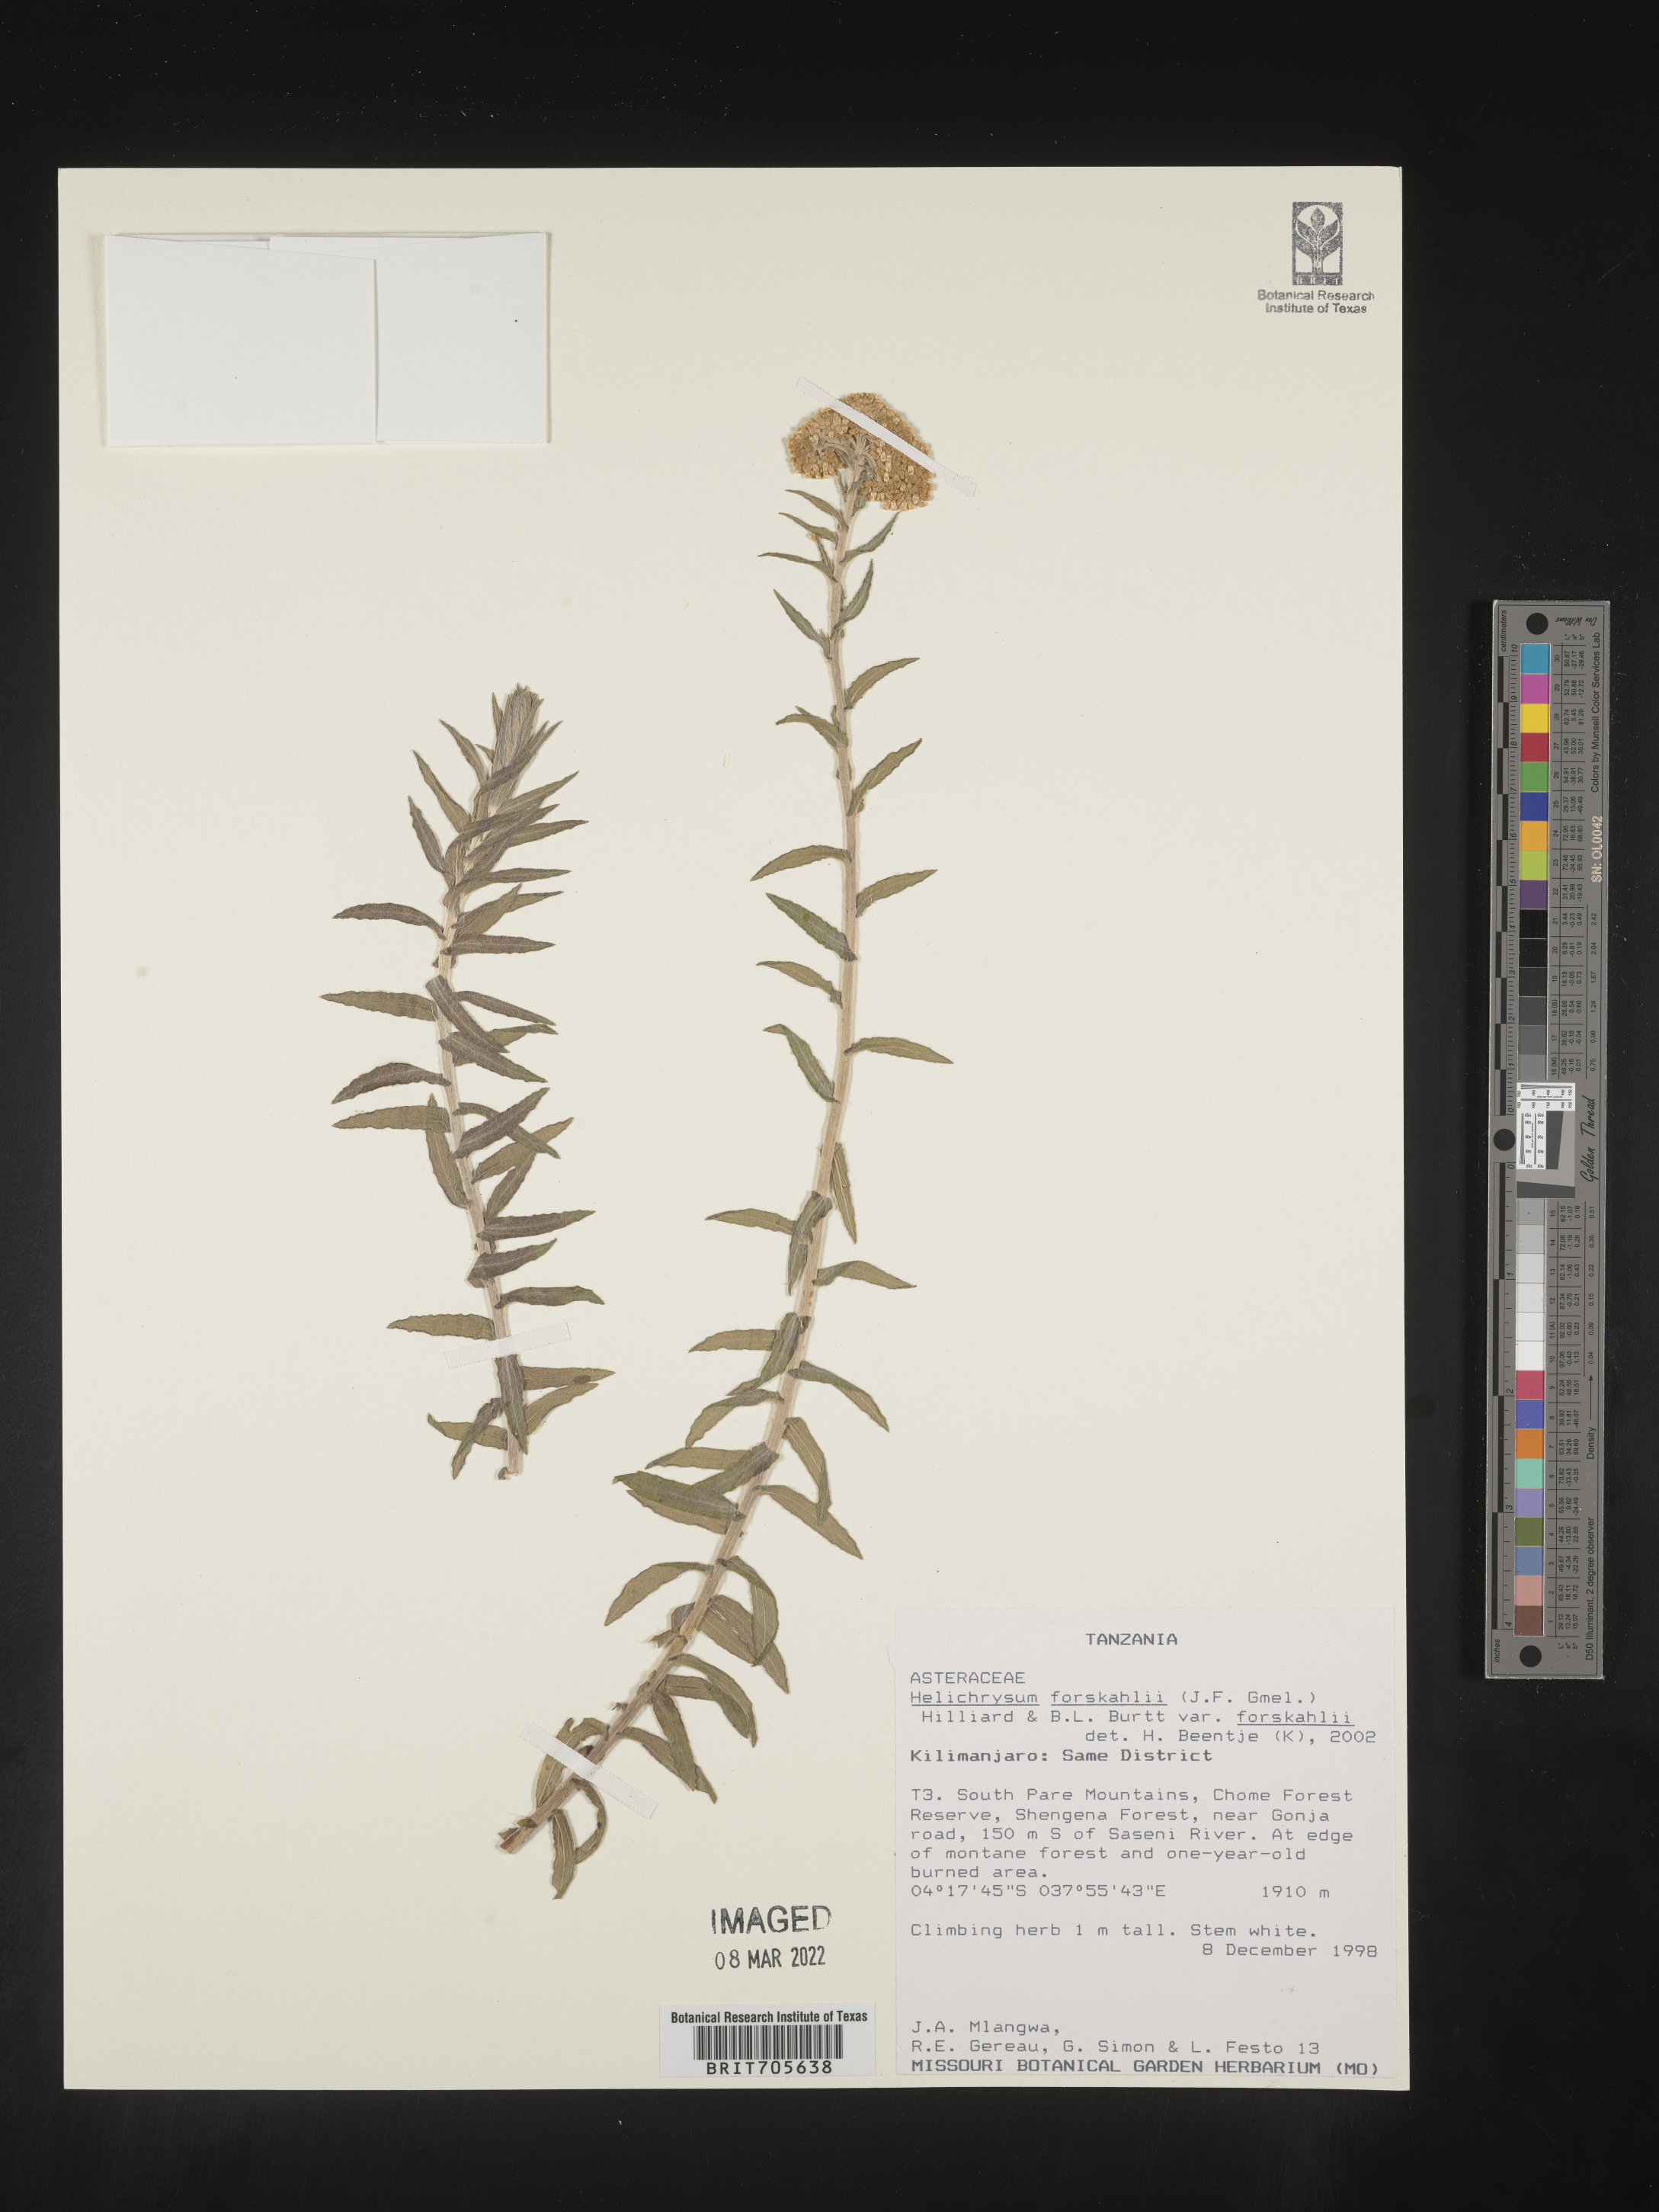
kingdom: Plantae
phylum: Tracheophyta
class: Magnoliopsida
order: Asterales
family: Asteraceae
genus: Helichrysum
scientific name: Helichrysum
